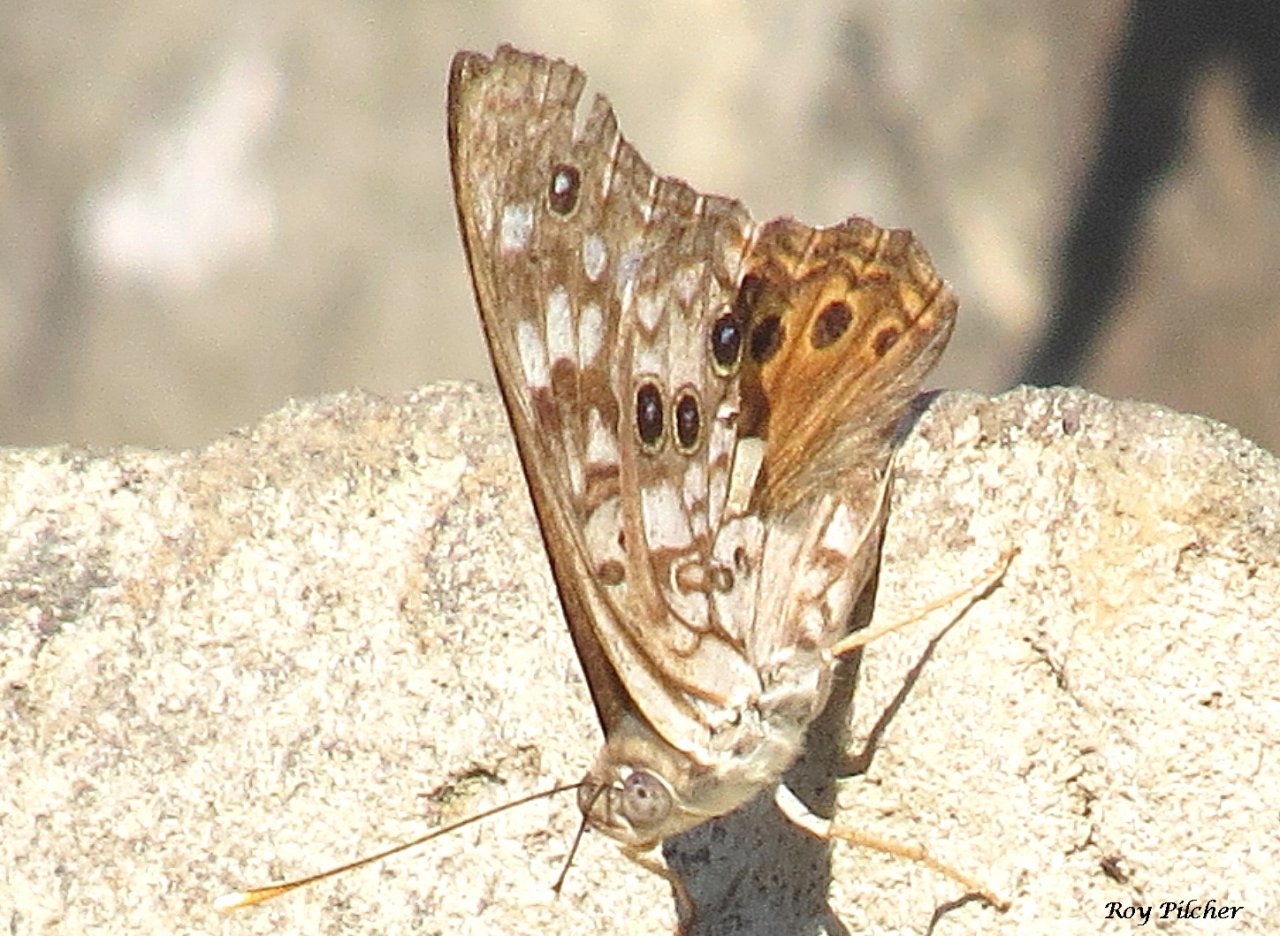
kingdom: Animalia
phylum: Arthropoda
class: Insecta
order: Lepidoptera
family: Nymphalidae
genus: Asterocampa
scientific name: Asterocampa celtis
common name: Hackberry Emperor
